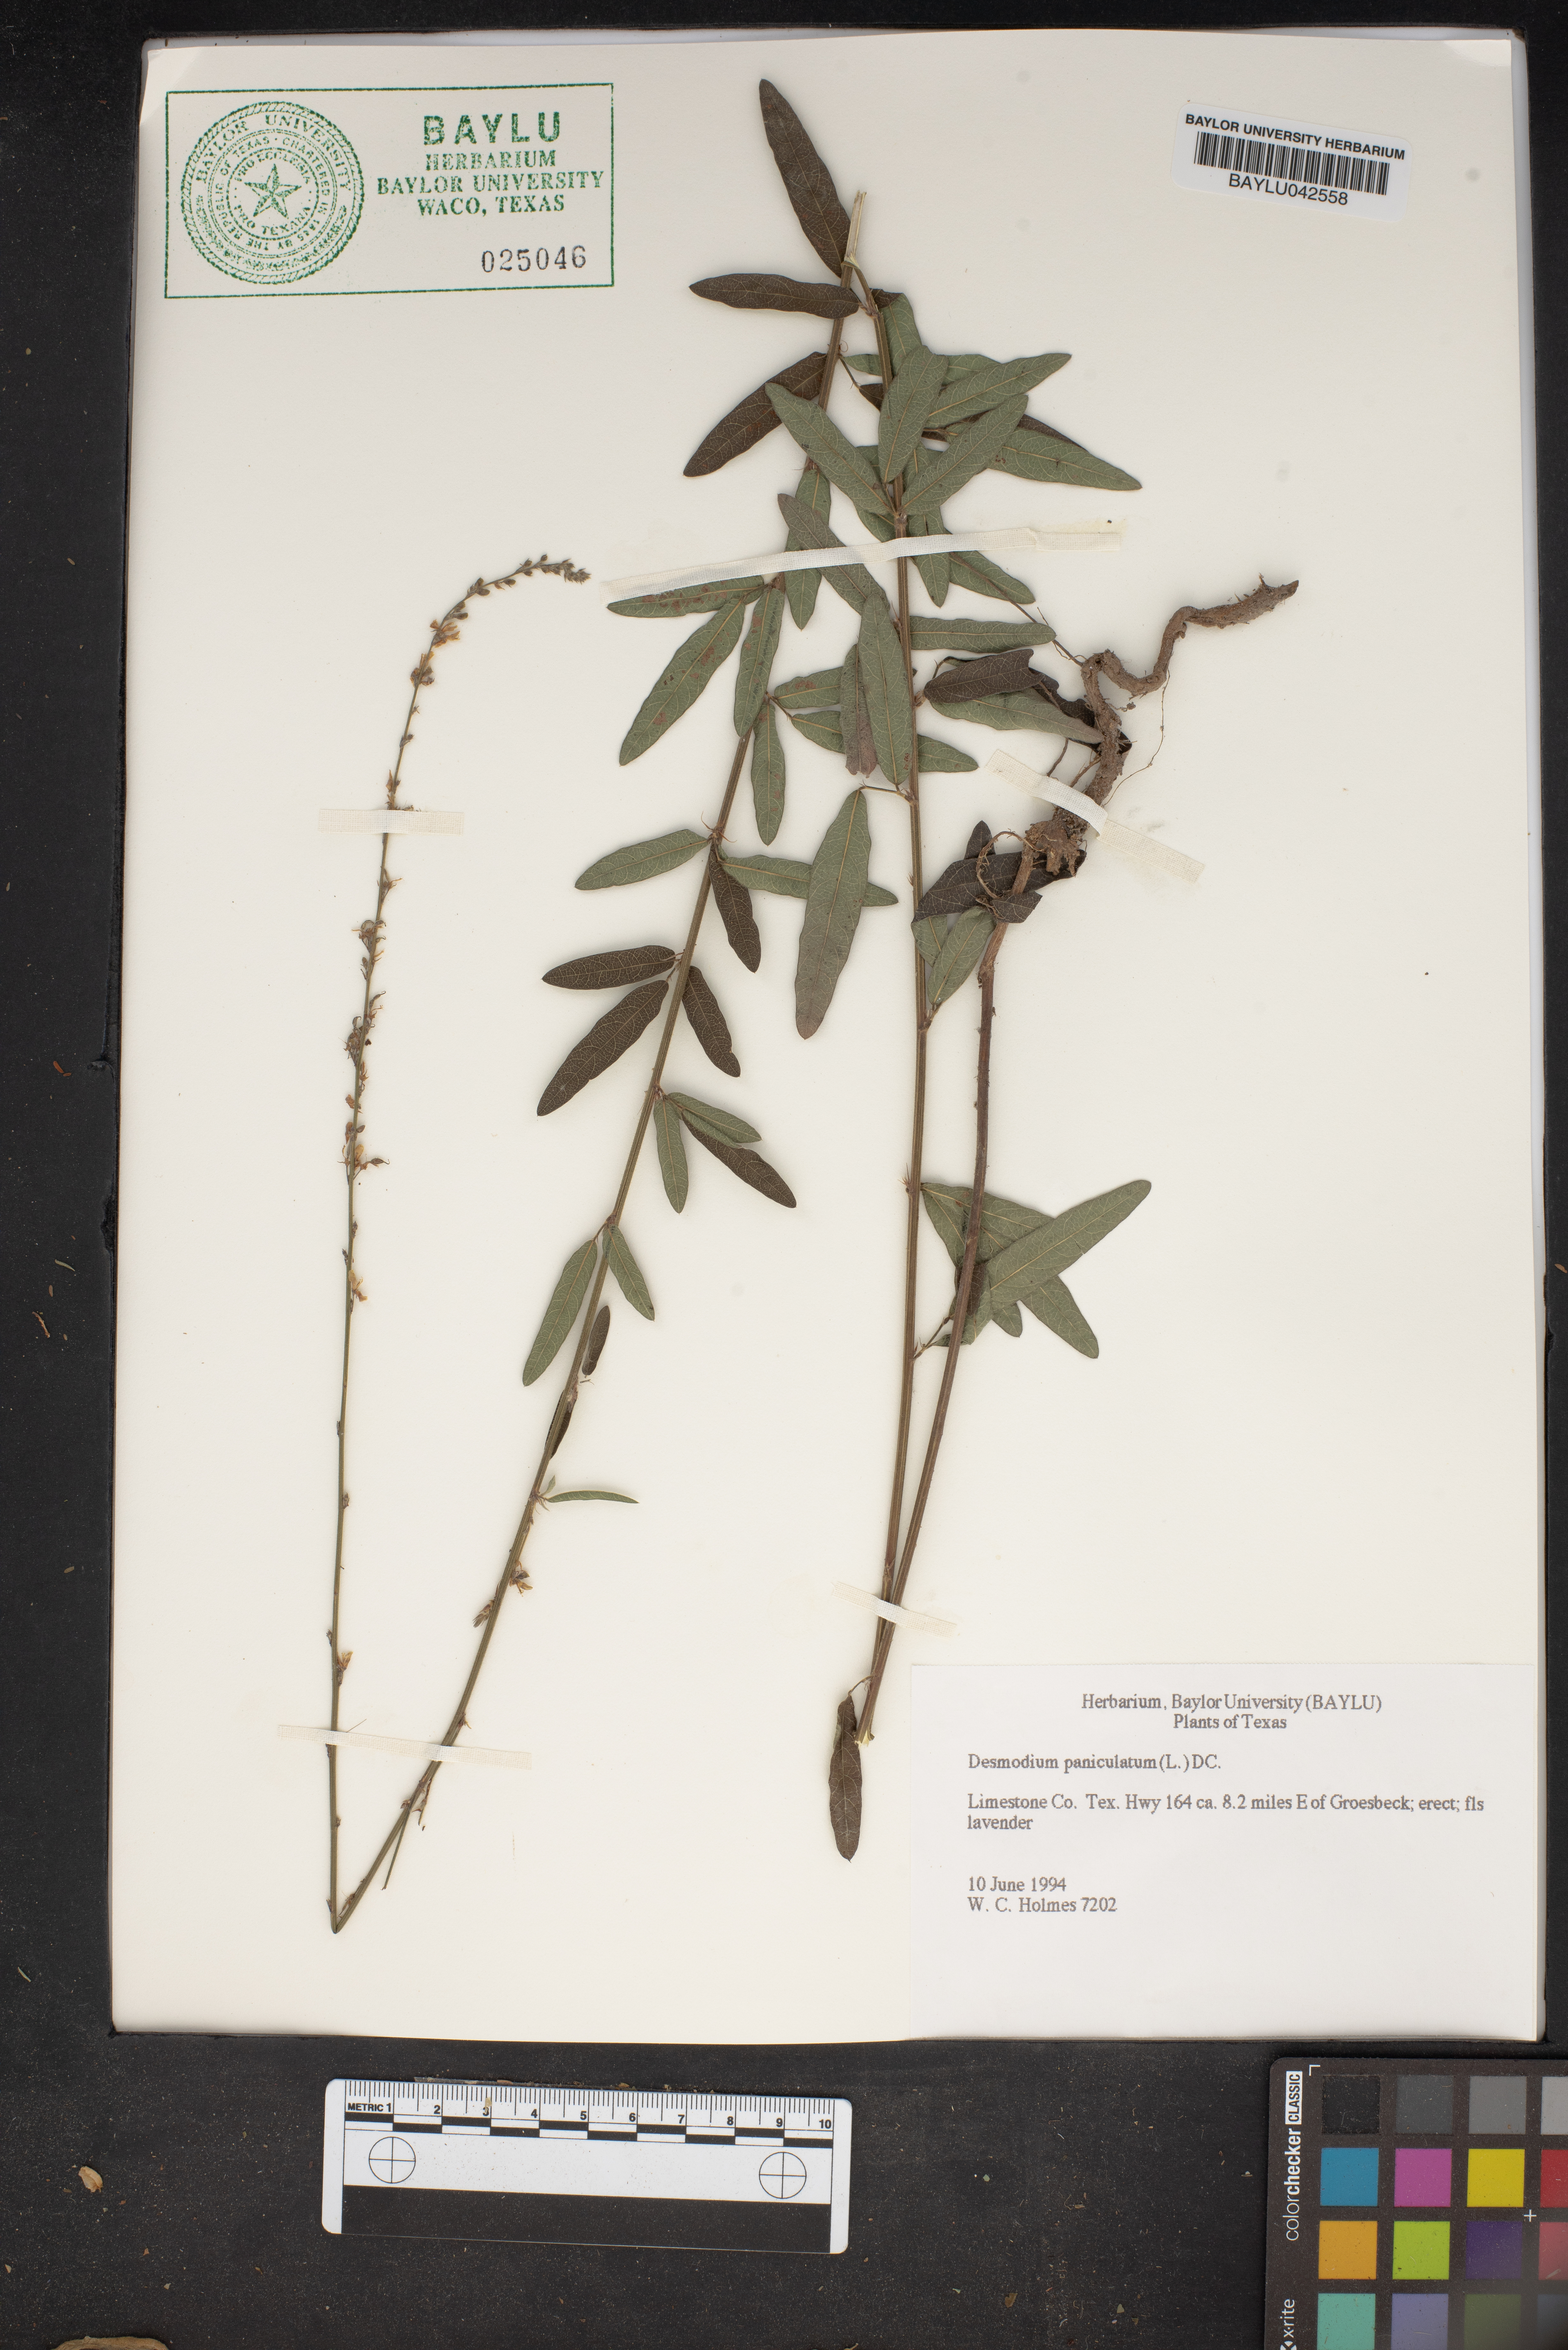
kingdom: Plantae
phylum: Tracheophyta
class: Magnoliopsida
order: Fabales
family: Fabaceae
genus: Desmodium
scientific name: Desmodium paniculatum
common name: Panicled tick-clover
